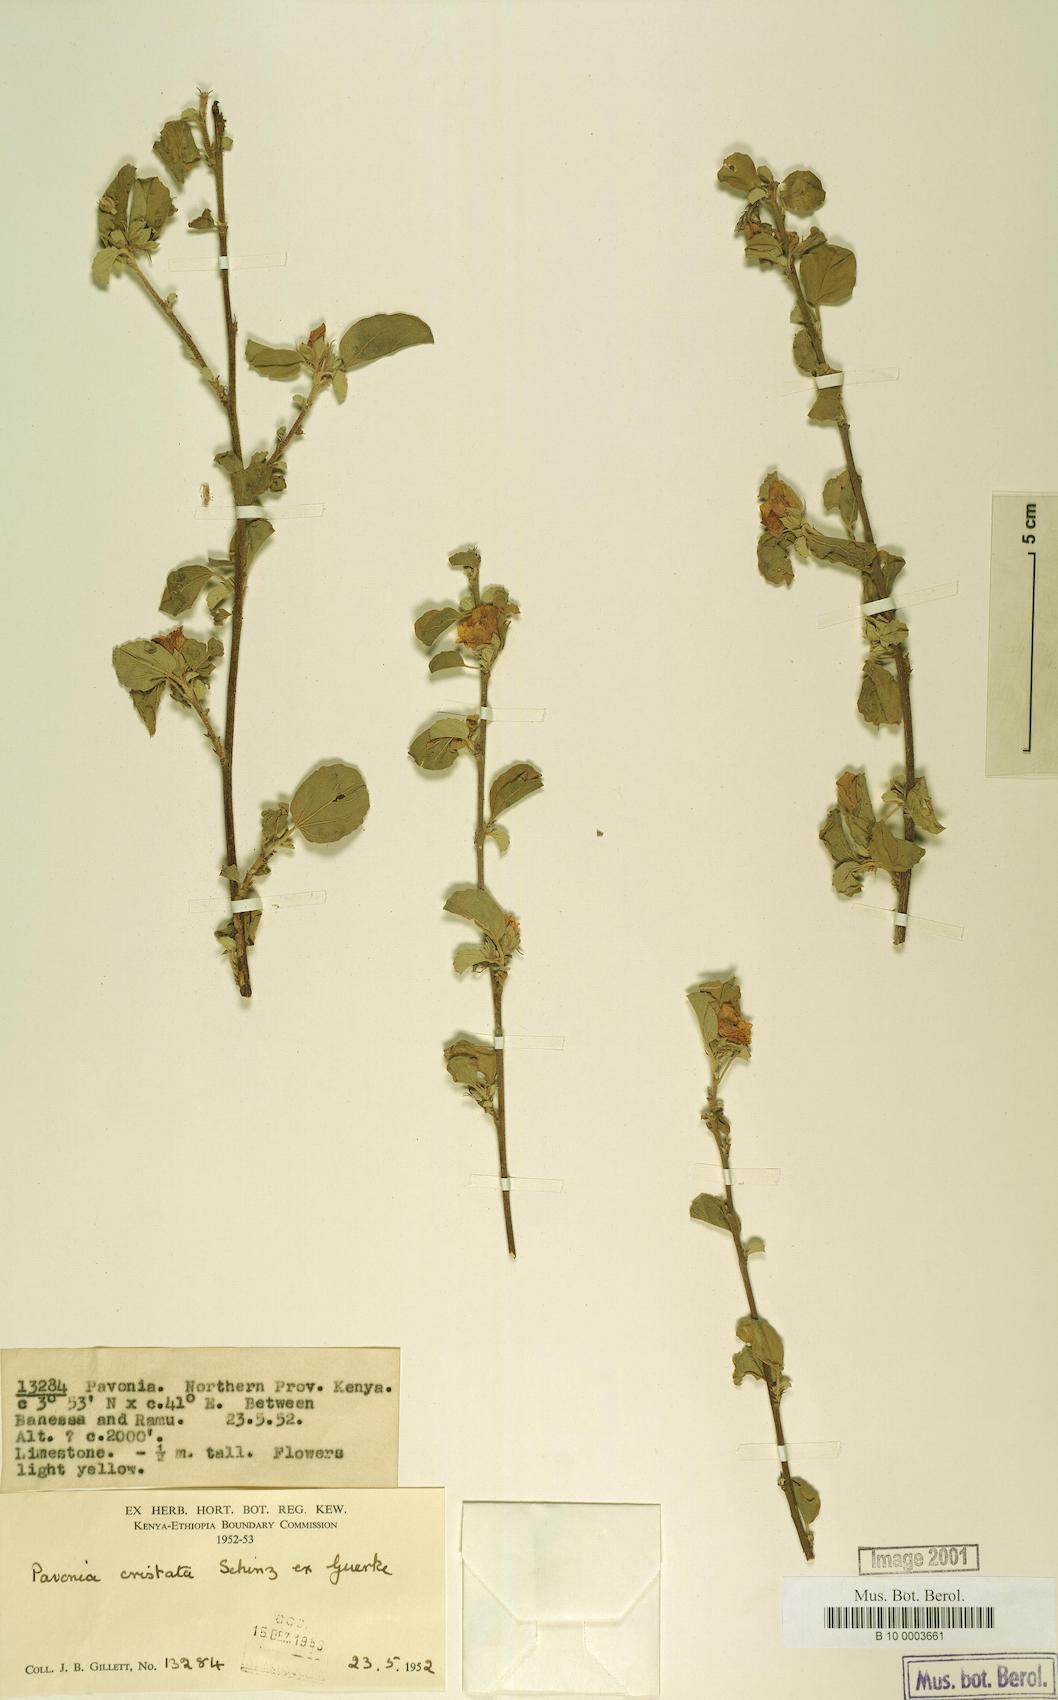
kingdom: Plantae
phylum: Tracheophyta
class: Magnoliopsida
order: Malvales
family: Malvaceae
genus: Pavonia
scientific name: Pavonia cristata
